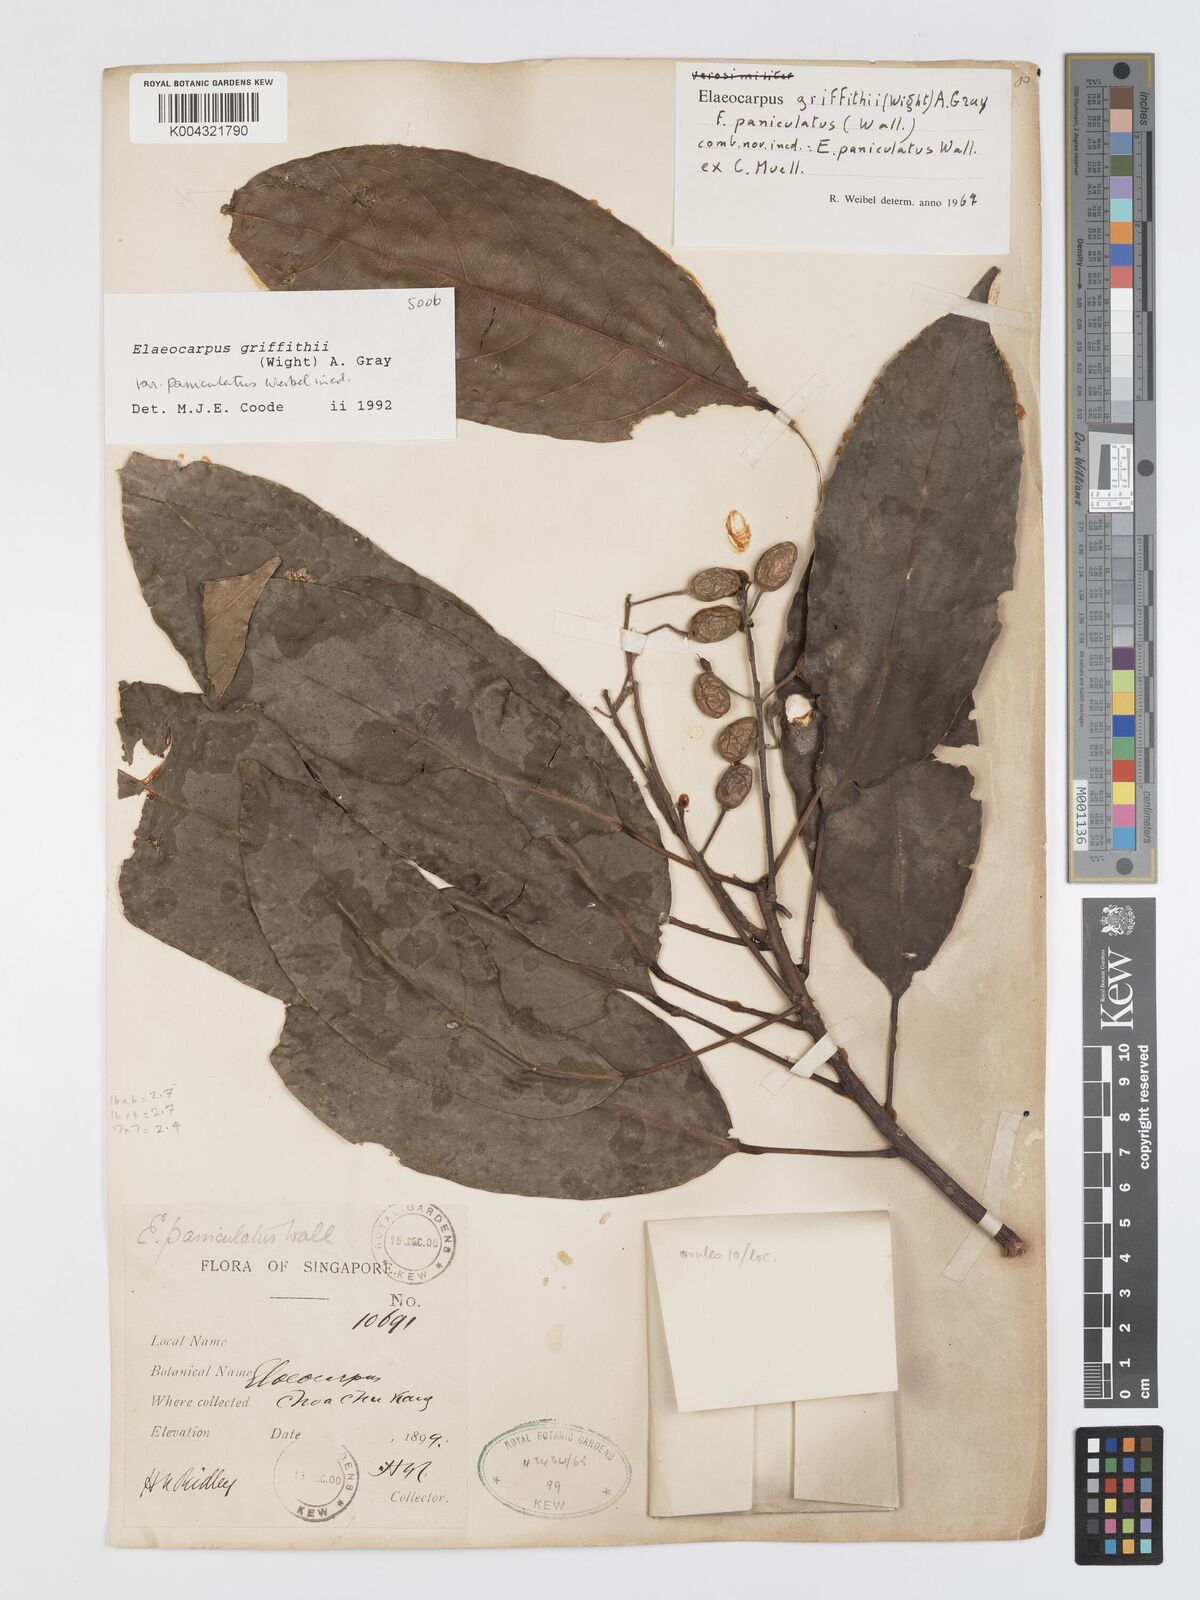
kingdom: Plantae
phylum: Tracheophyta
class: Magnoliopsida
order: Oxalidales
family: Elaeocarpaceae
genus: Elaeocarpus
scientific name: Elaeocarpus griffithii
